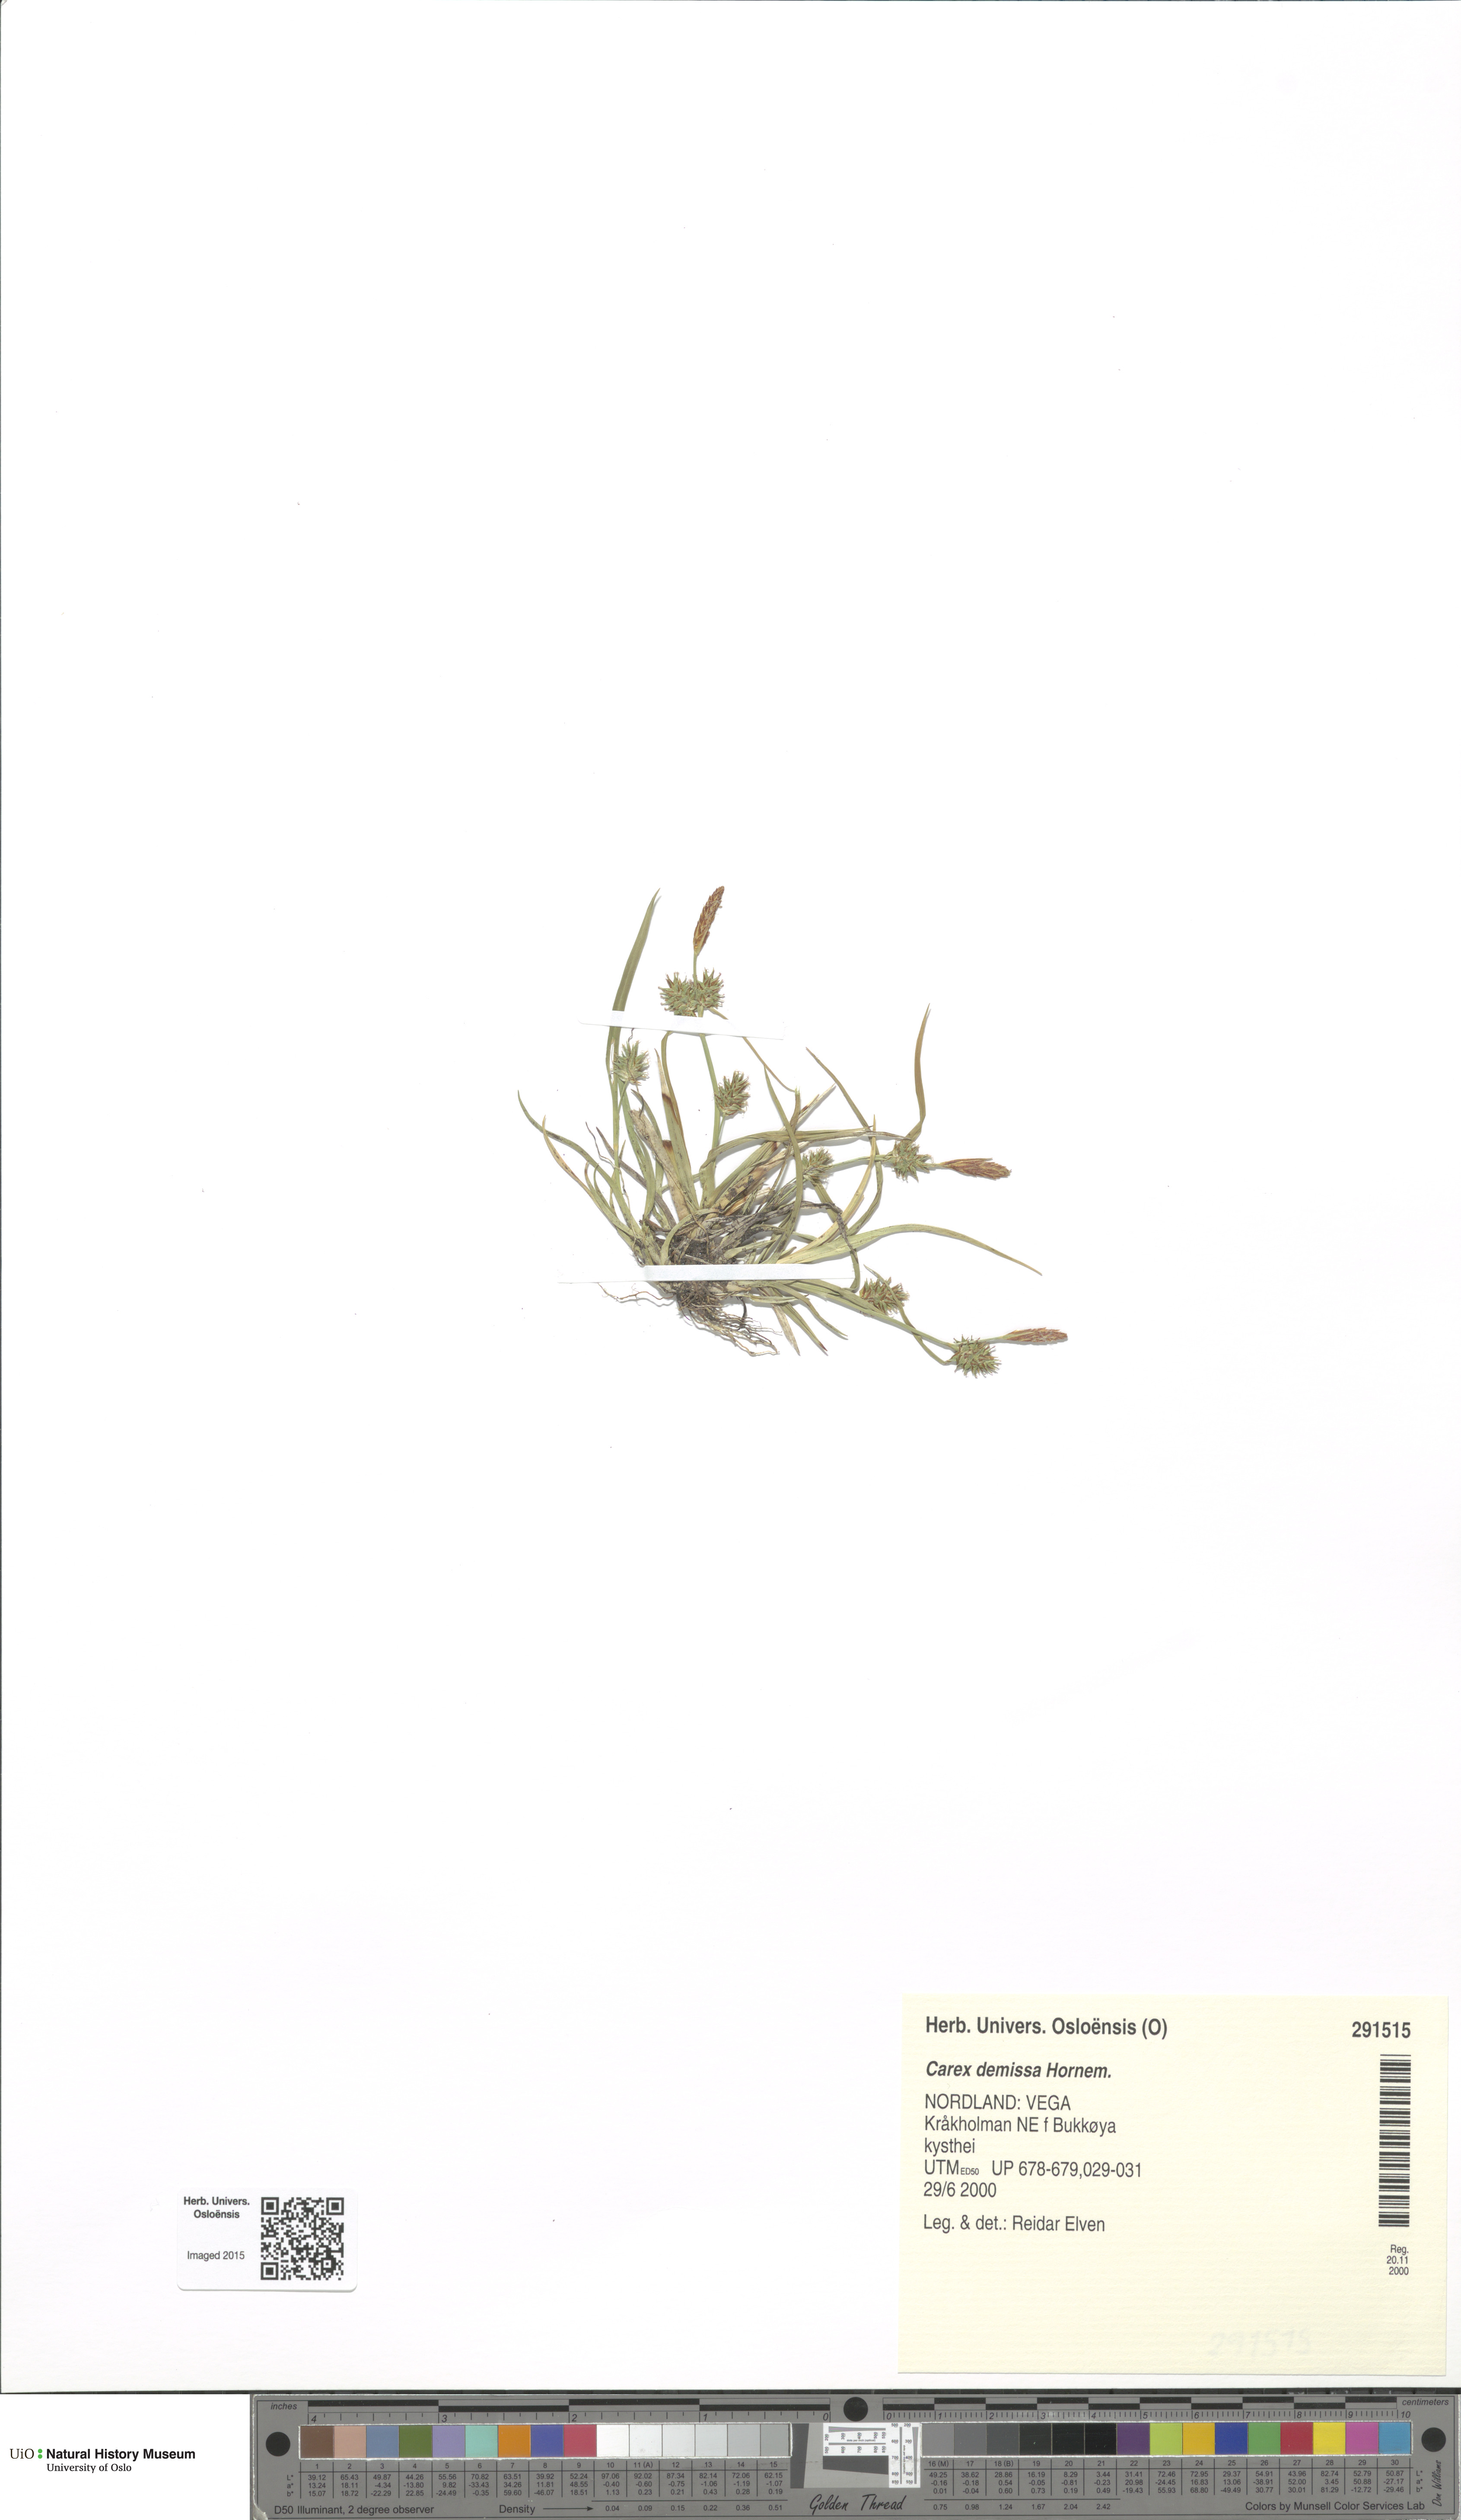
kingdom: Plantae
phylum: Tracheophyta
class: Liliopsida
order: Poales
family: Cyperaceae
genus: Carex
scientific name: Carex demissa
